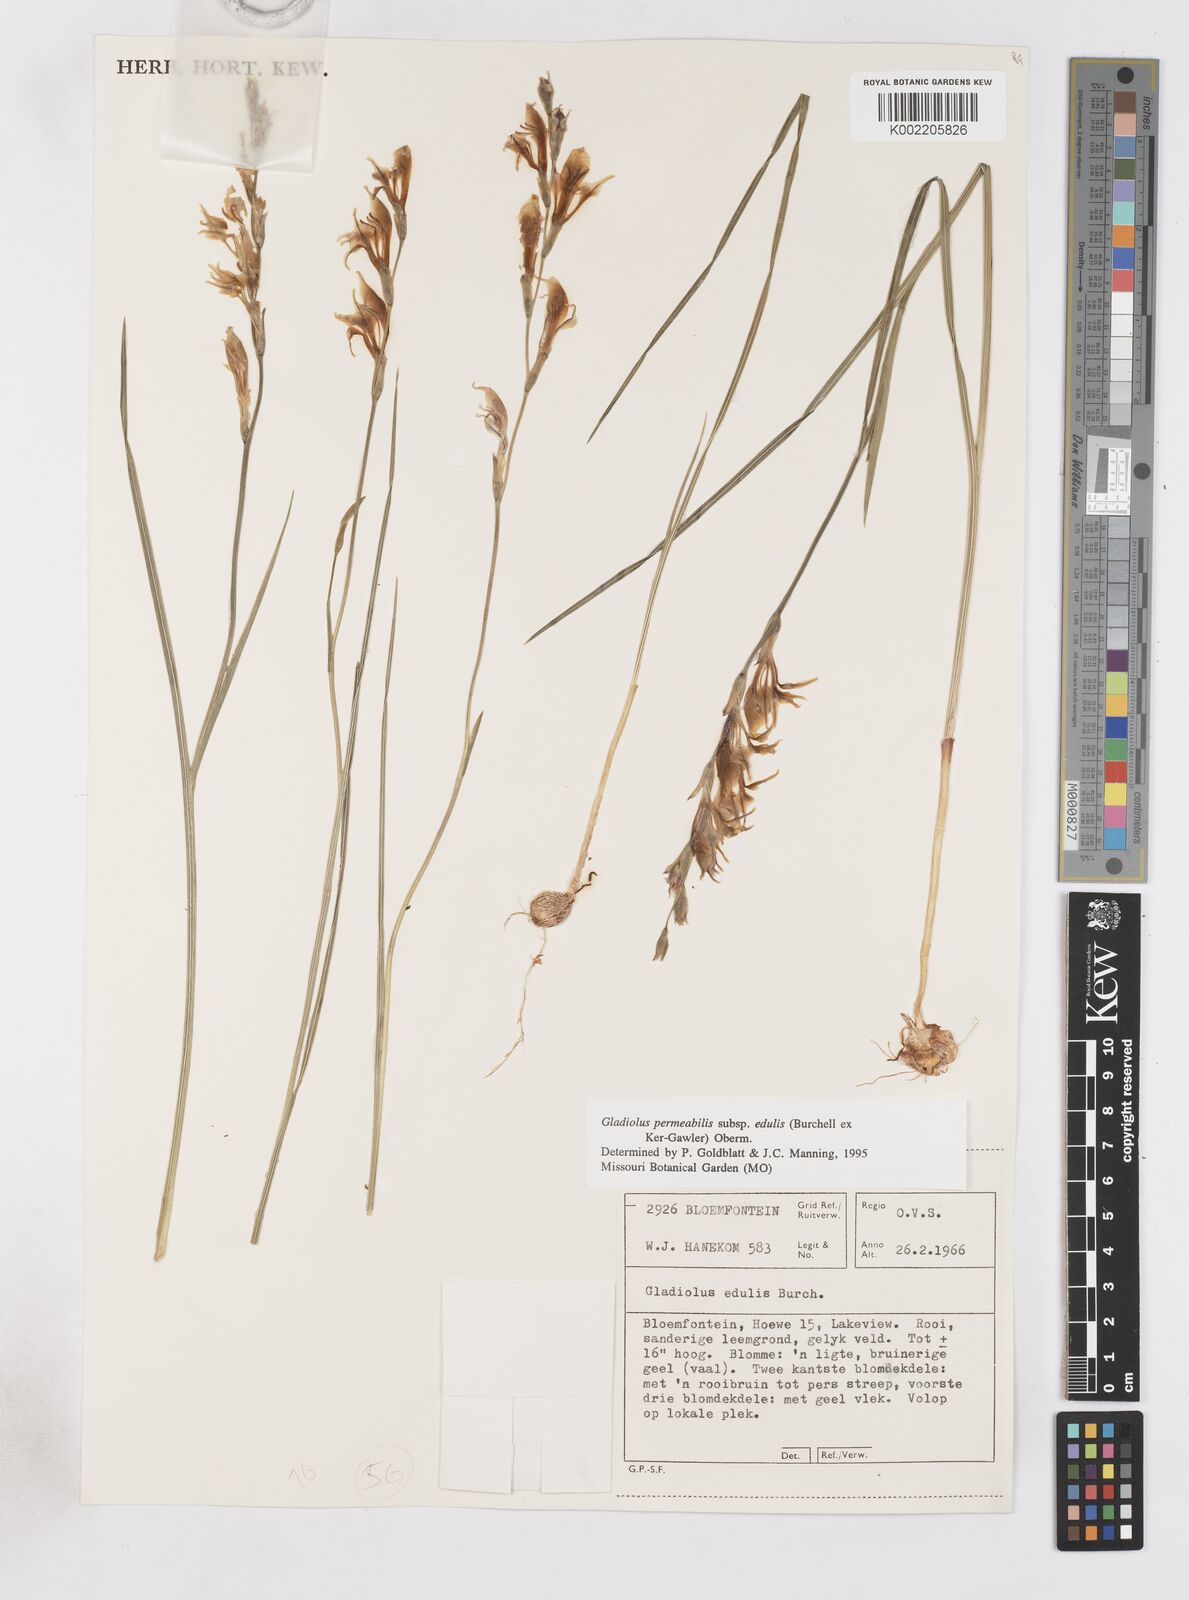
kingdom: Plantae
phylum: Tracheophyta
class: Liliopsida
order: Asparagales
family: Iridaceae
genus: Gladiolus
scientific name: Gladiolus permeabilis
